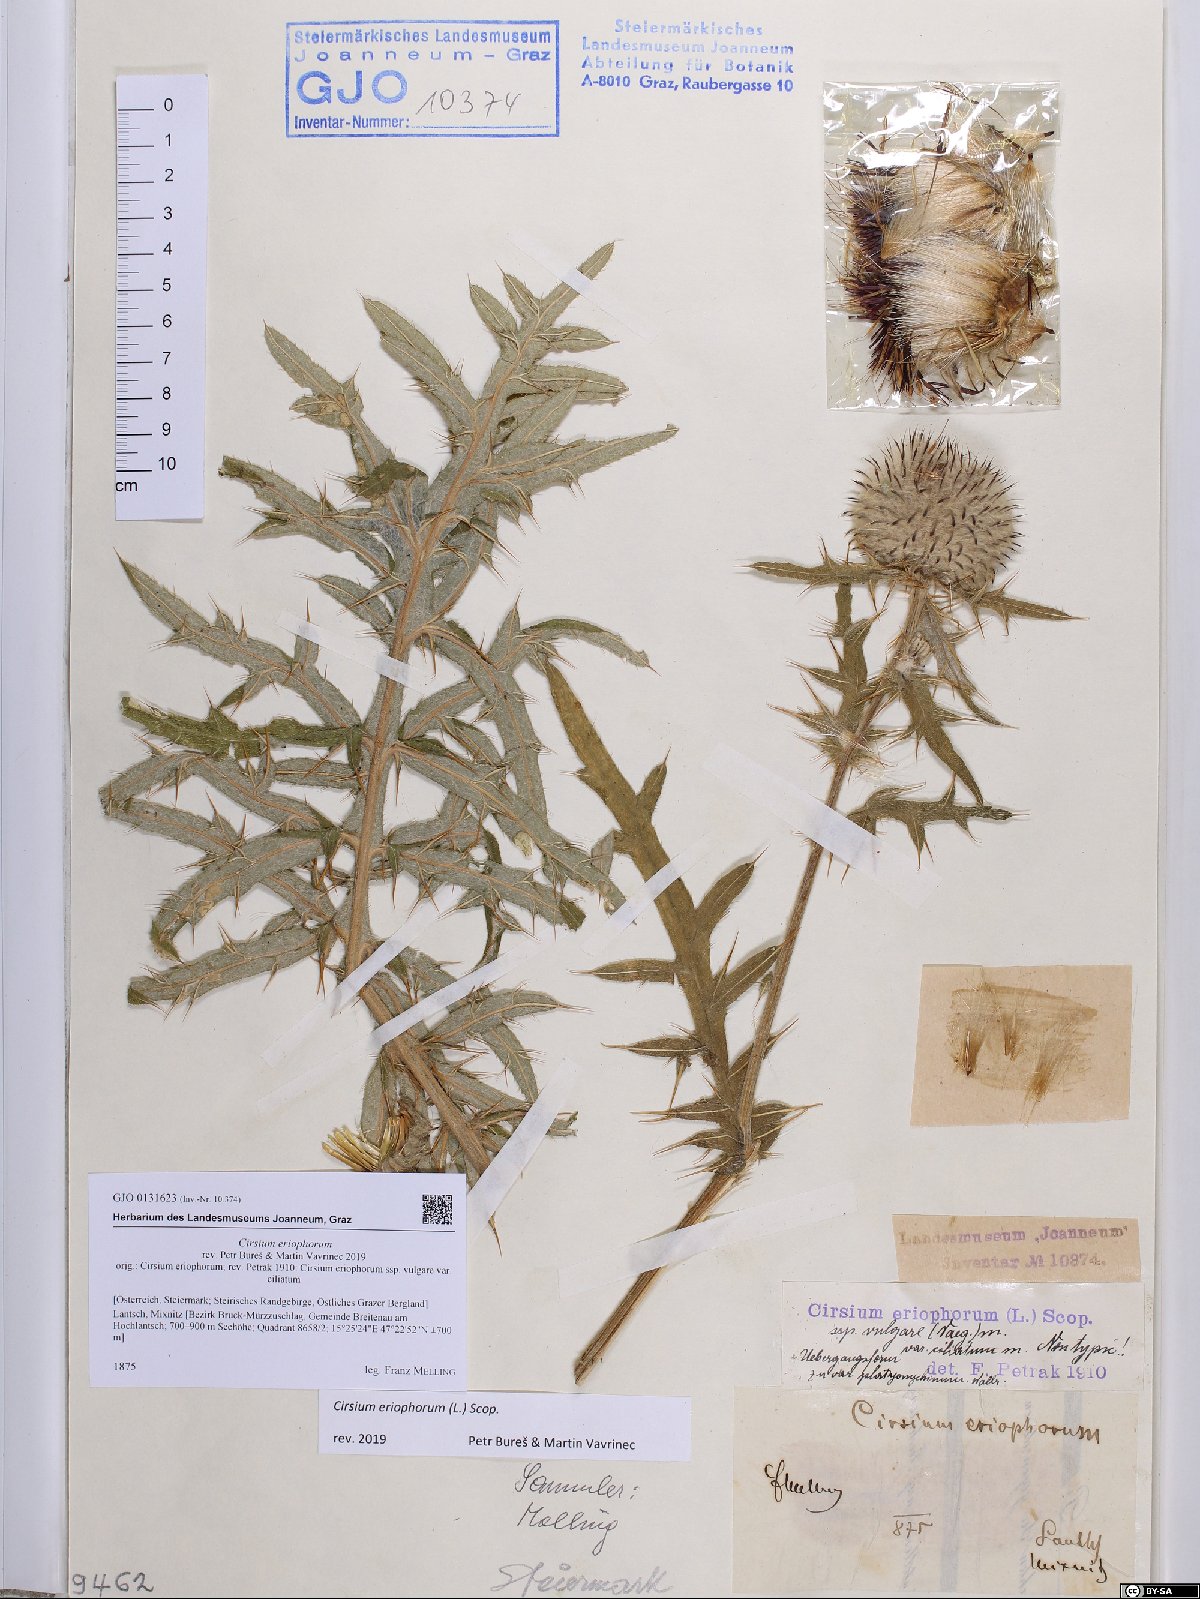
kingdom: Plantae
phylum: Tracheophyta
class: Magnoliopsida
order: Asterales
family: Asteraceae
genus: Lophiolepis
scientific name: Lophiolepis eriophora
